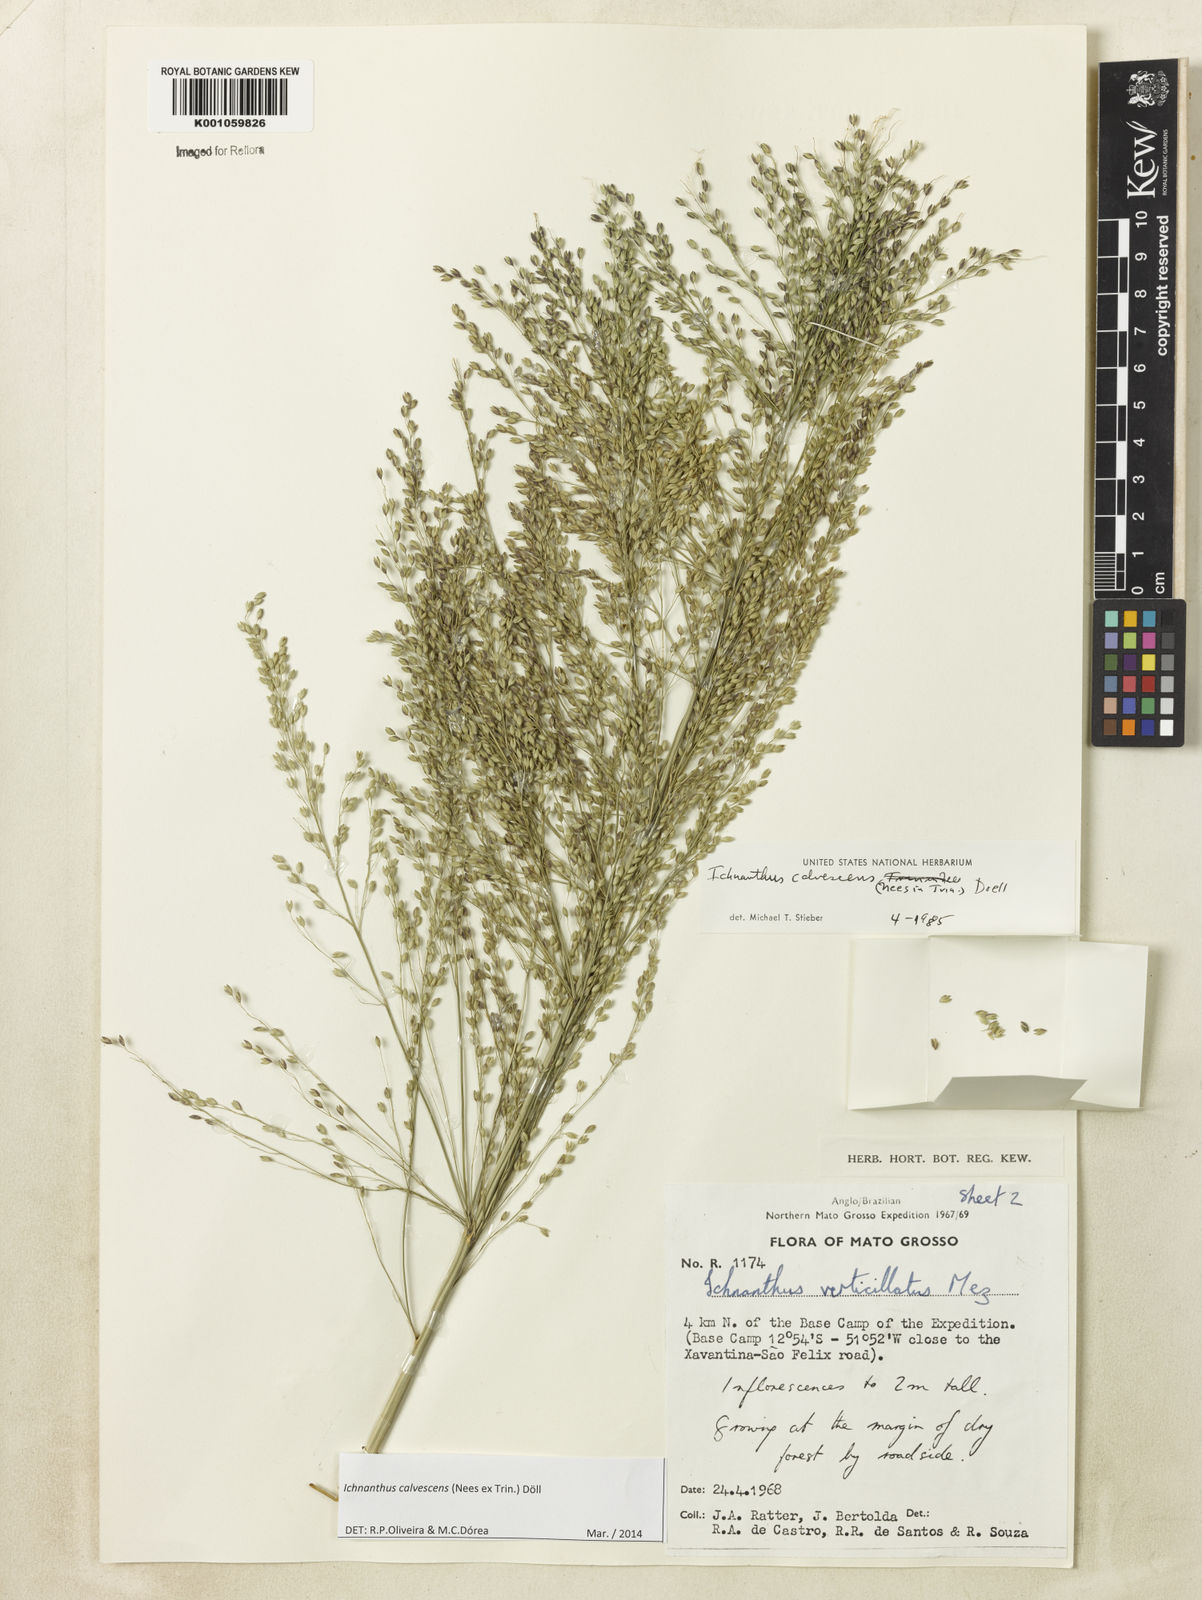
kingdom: Plantae
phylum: Tracheophyta
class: Liliopsida
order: Poales
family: Poaceae
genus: Ichnanthus
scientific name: Ichnanthus
